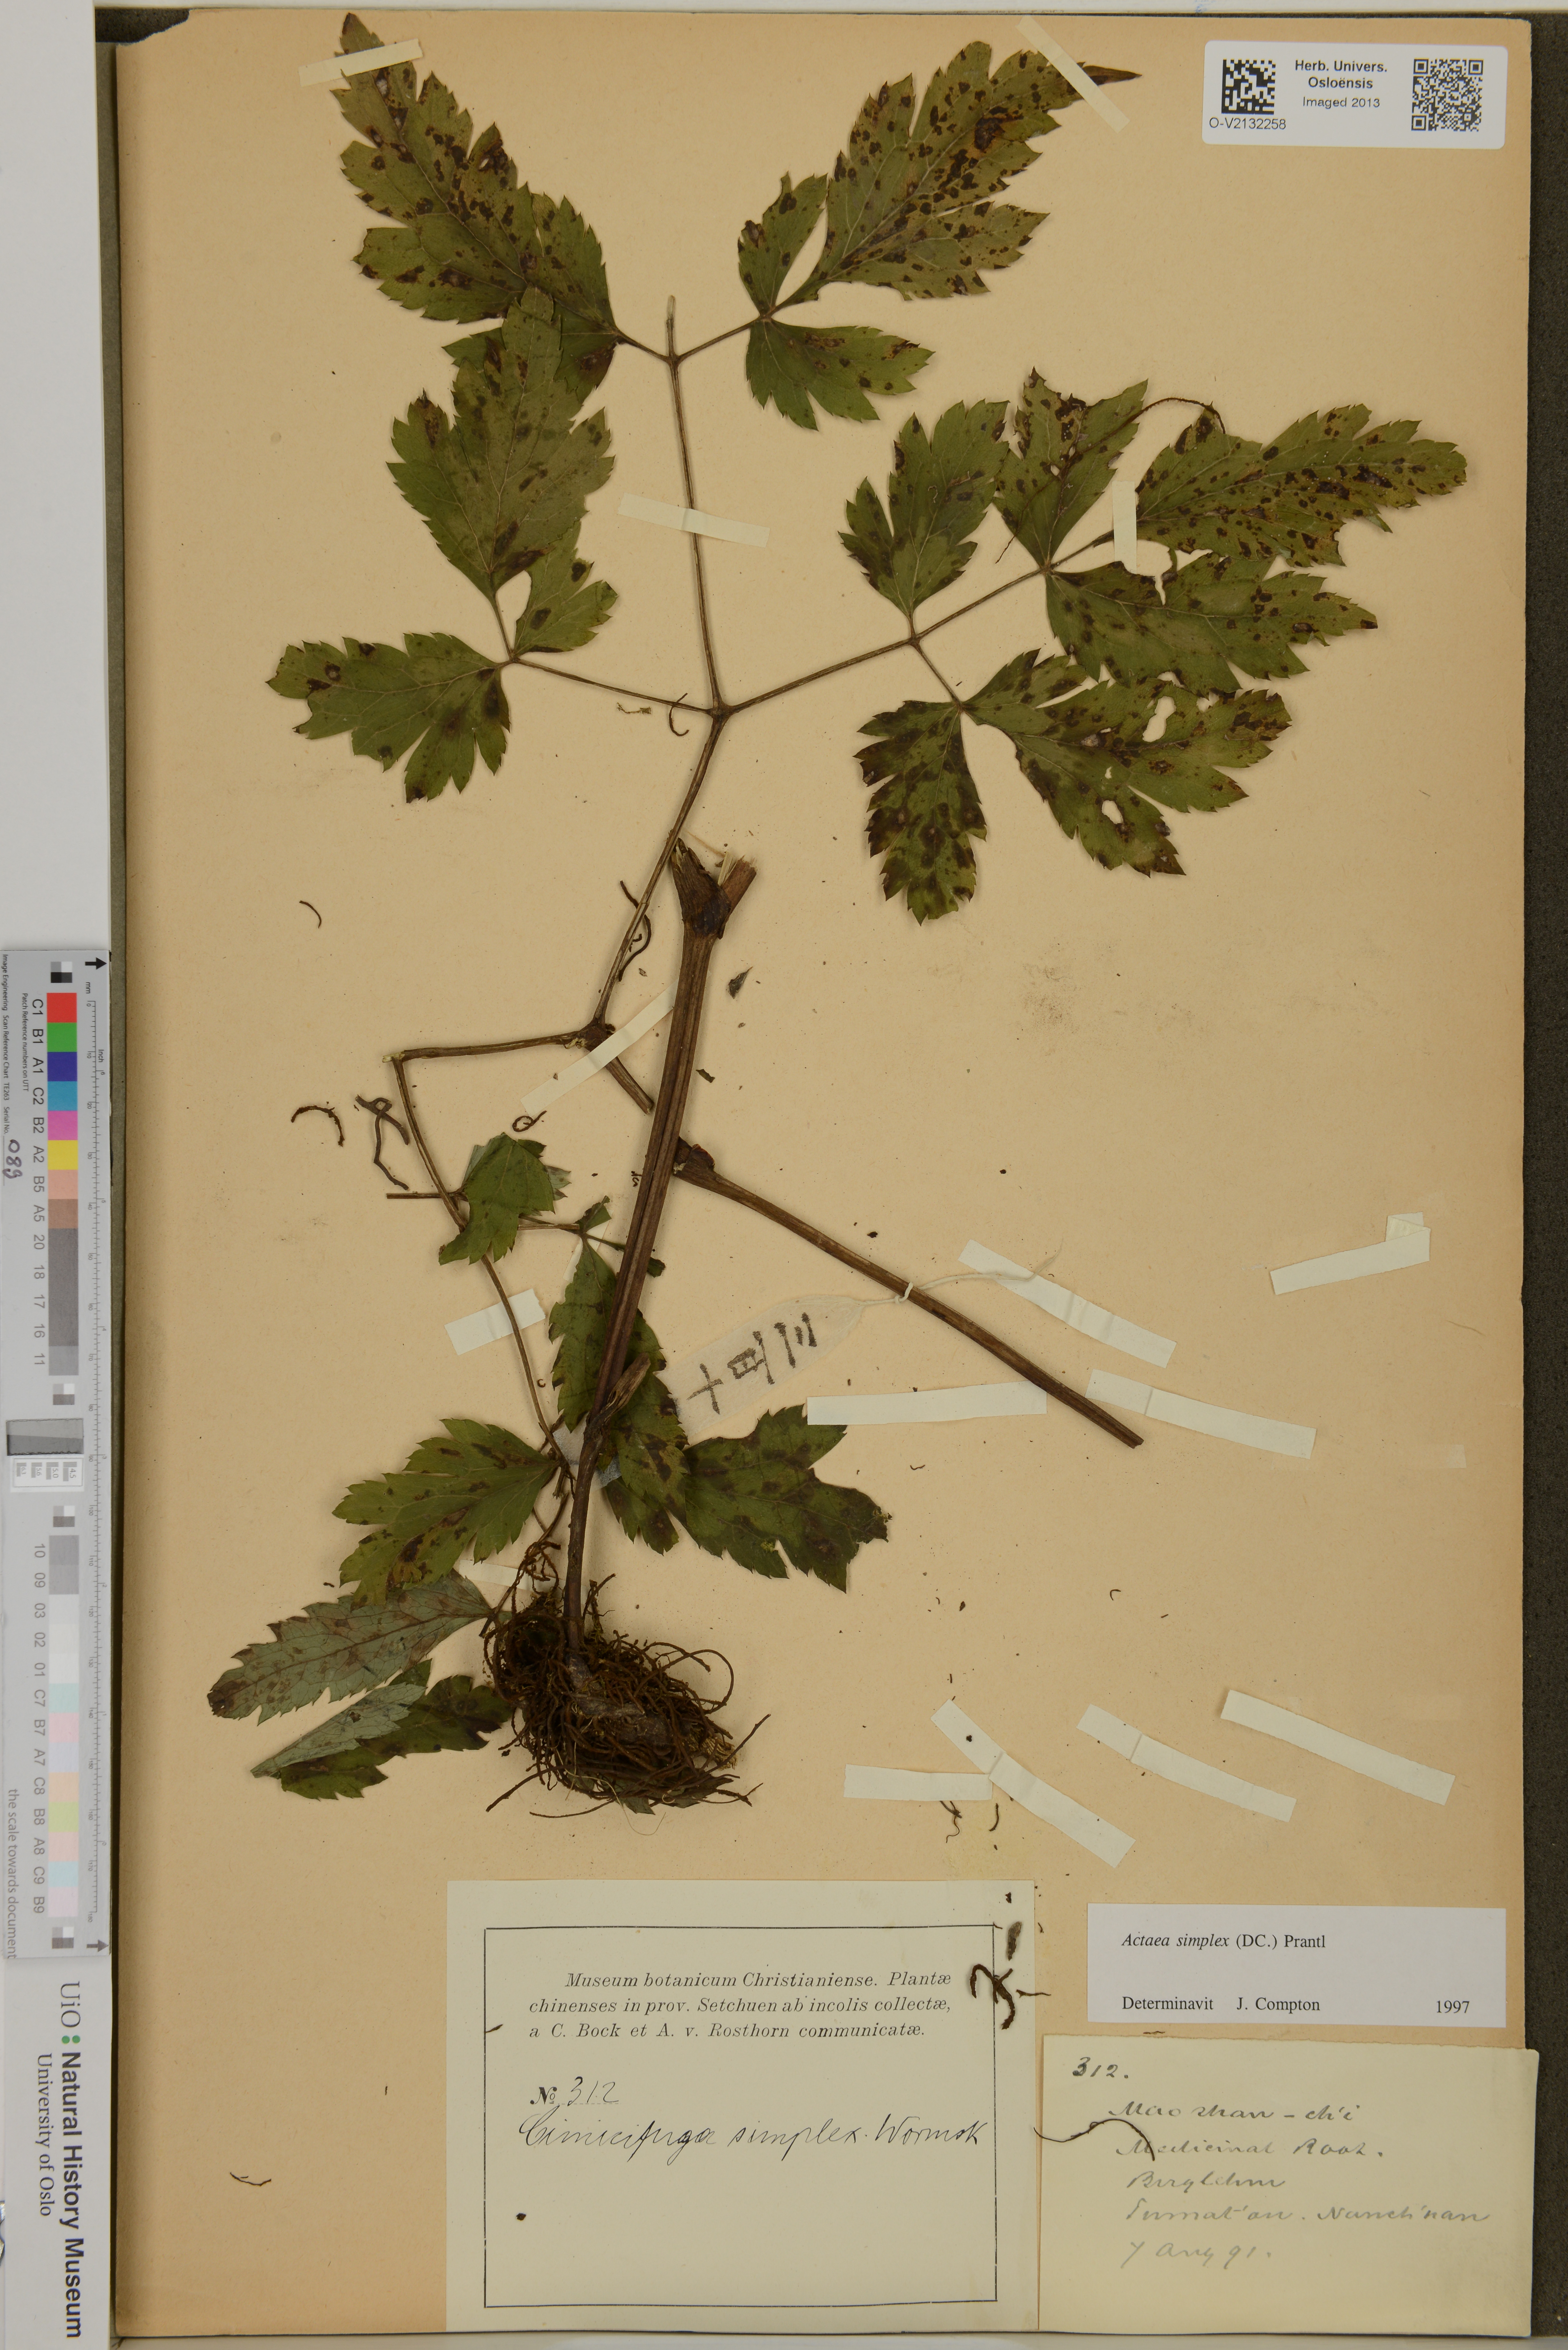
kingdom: Plantae
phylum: Tracheophyta
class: Magnoliopsida
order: Ranunculales
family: Ranunculaceae
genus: Actaea
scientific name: Actaea simplex
